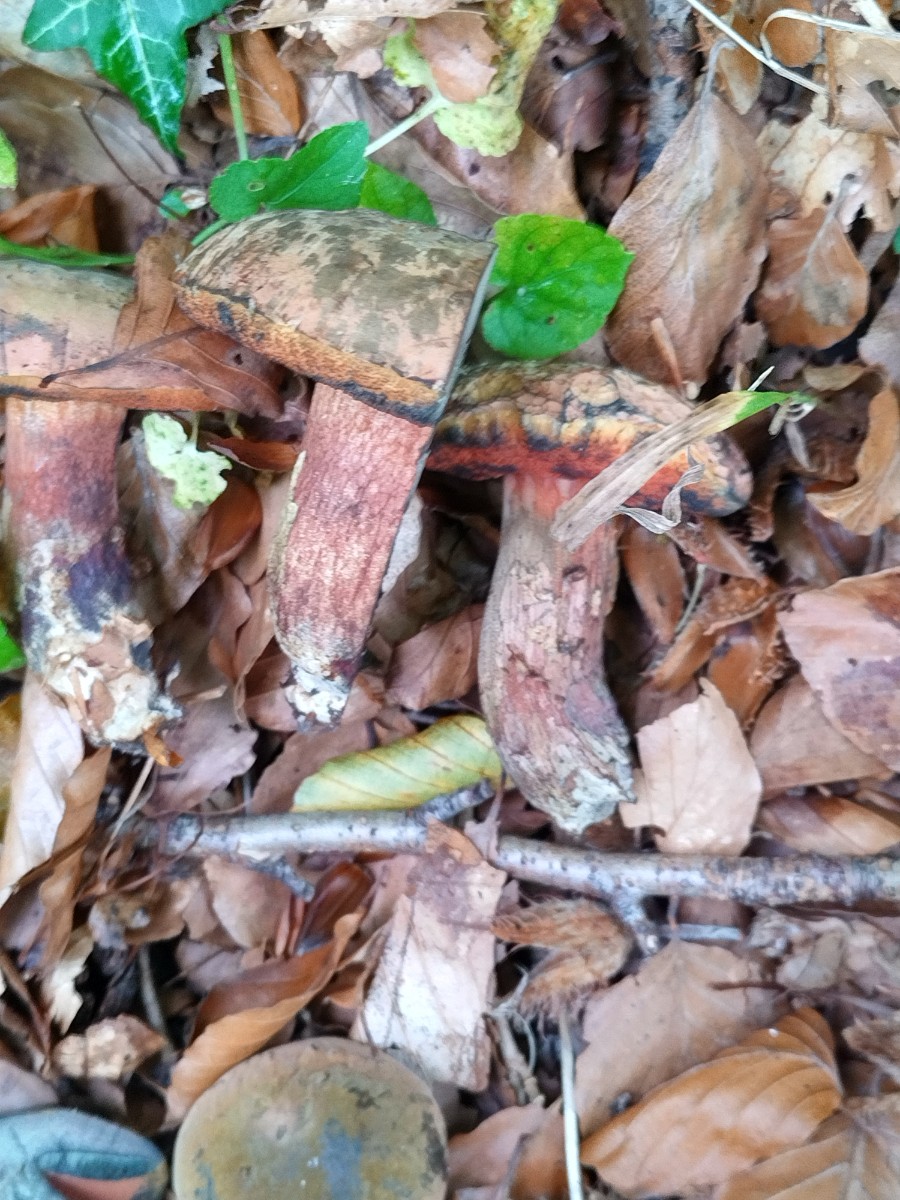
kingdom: Fungi
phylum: Basidiomycota
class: Agaricomycetes
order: Boletales
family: Boletaceae
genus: Suillellus
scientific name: Suillellus mendax
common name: joker-indigorørhat
